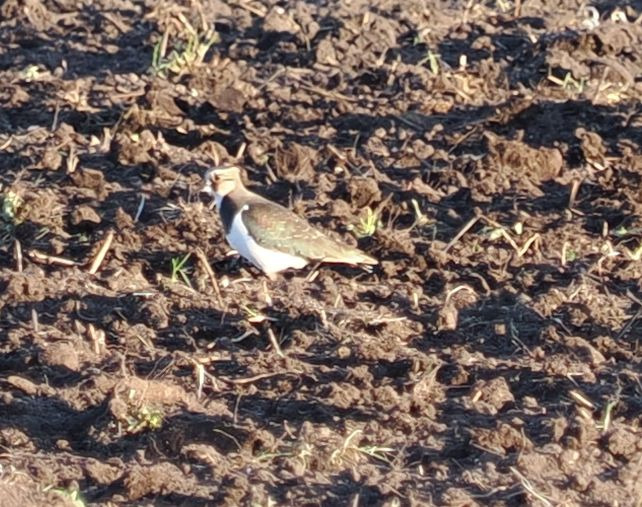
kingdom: Animalia
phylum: Chordata
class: Aves
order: Charadriiformes
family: Charadriidae
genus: Vanellus
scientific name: Vanellus vanellus
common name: Vibe
